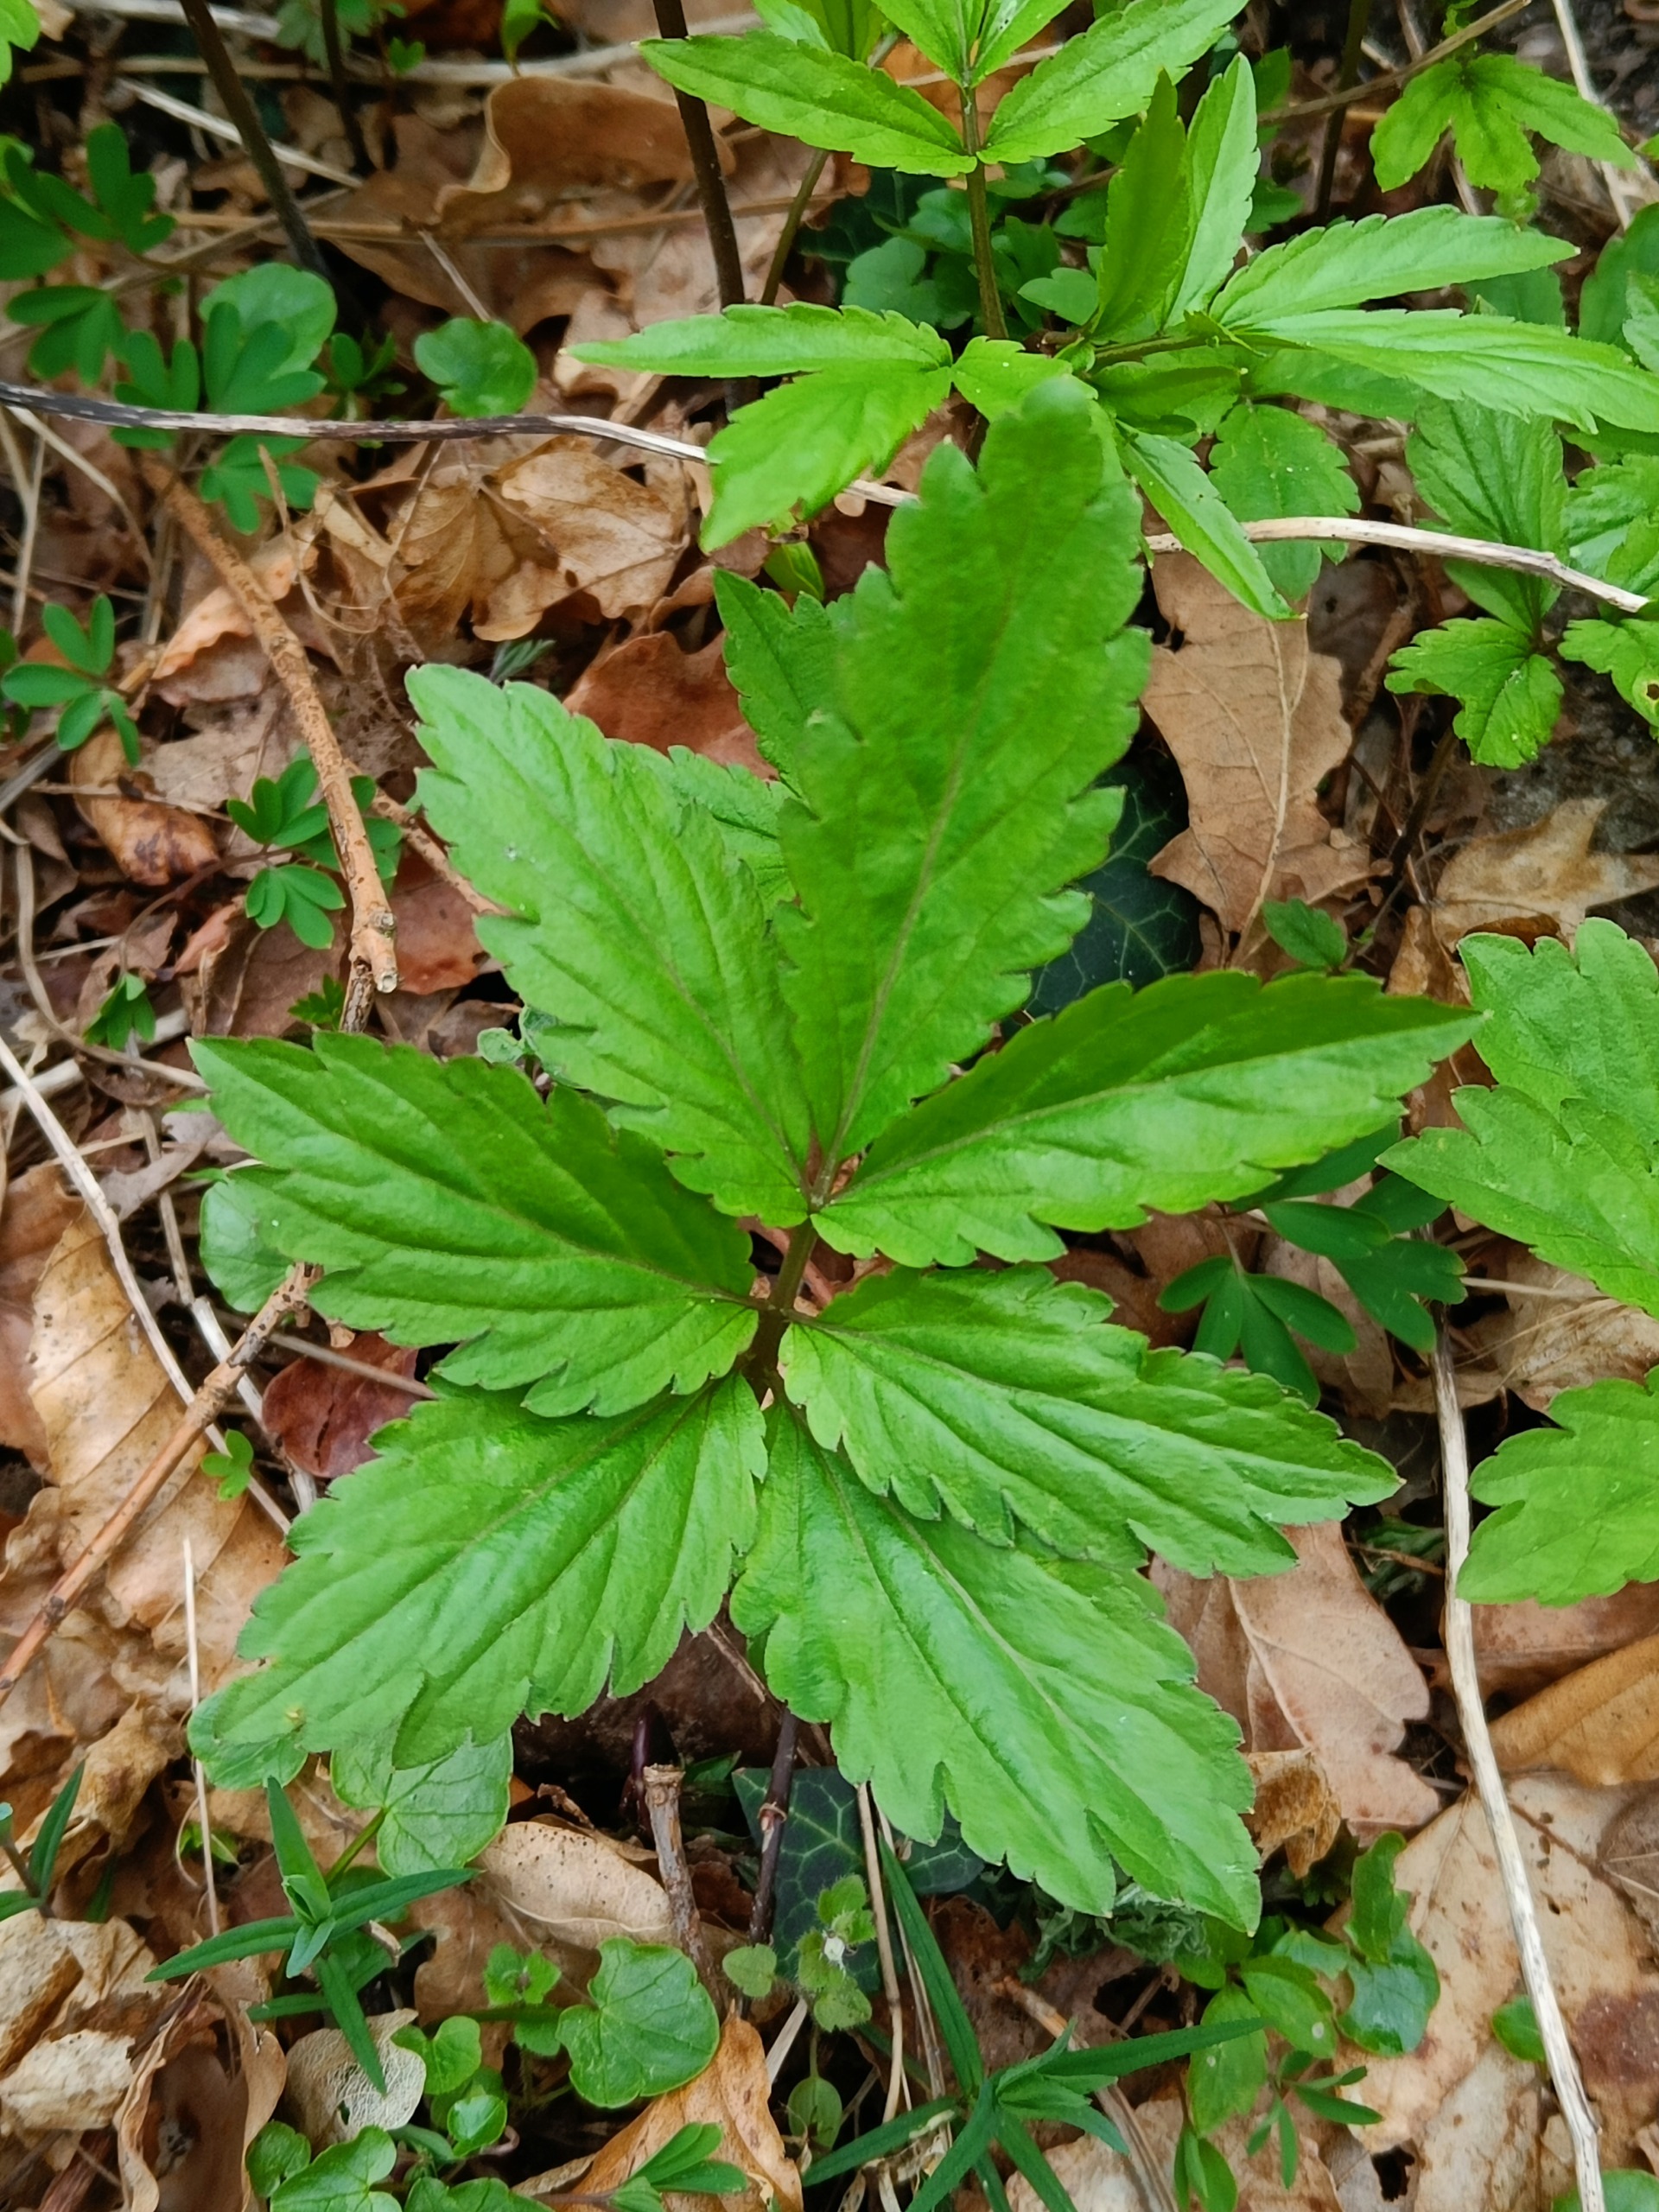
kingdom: Plantae
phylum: Tracheophyta
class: Magnoliopsida
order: Brassicales
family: Brassicaceae
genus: Cardamine
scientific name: Cardamine bulbifera
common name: Tandrod
